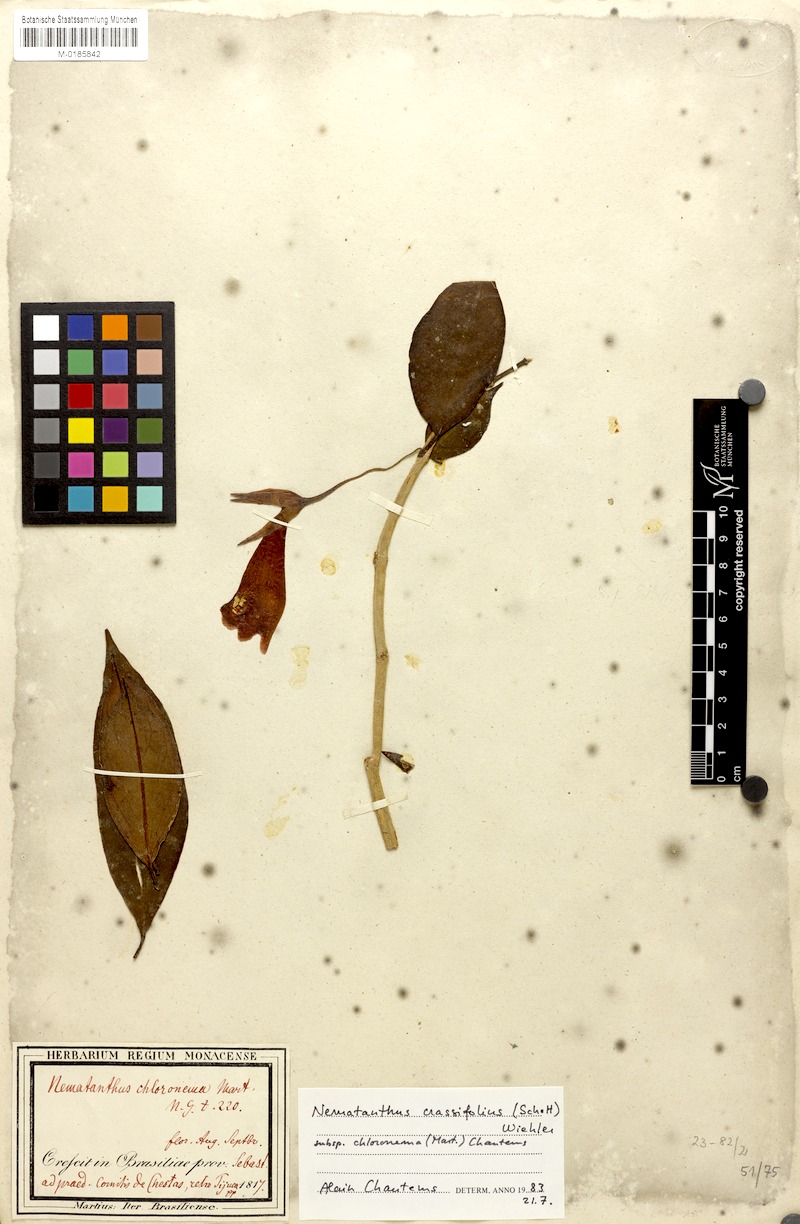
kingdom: Plantae
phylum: Tracheophyta
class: Magnoliopsida
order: Lamiales
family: Gesneriaceae
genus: Nematanthus
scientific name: Nematanthus crassifolius
